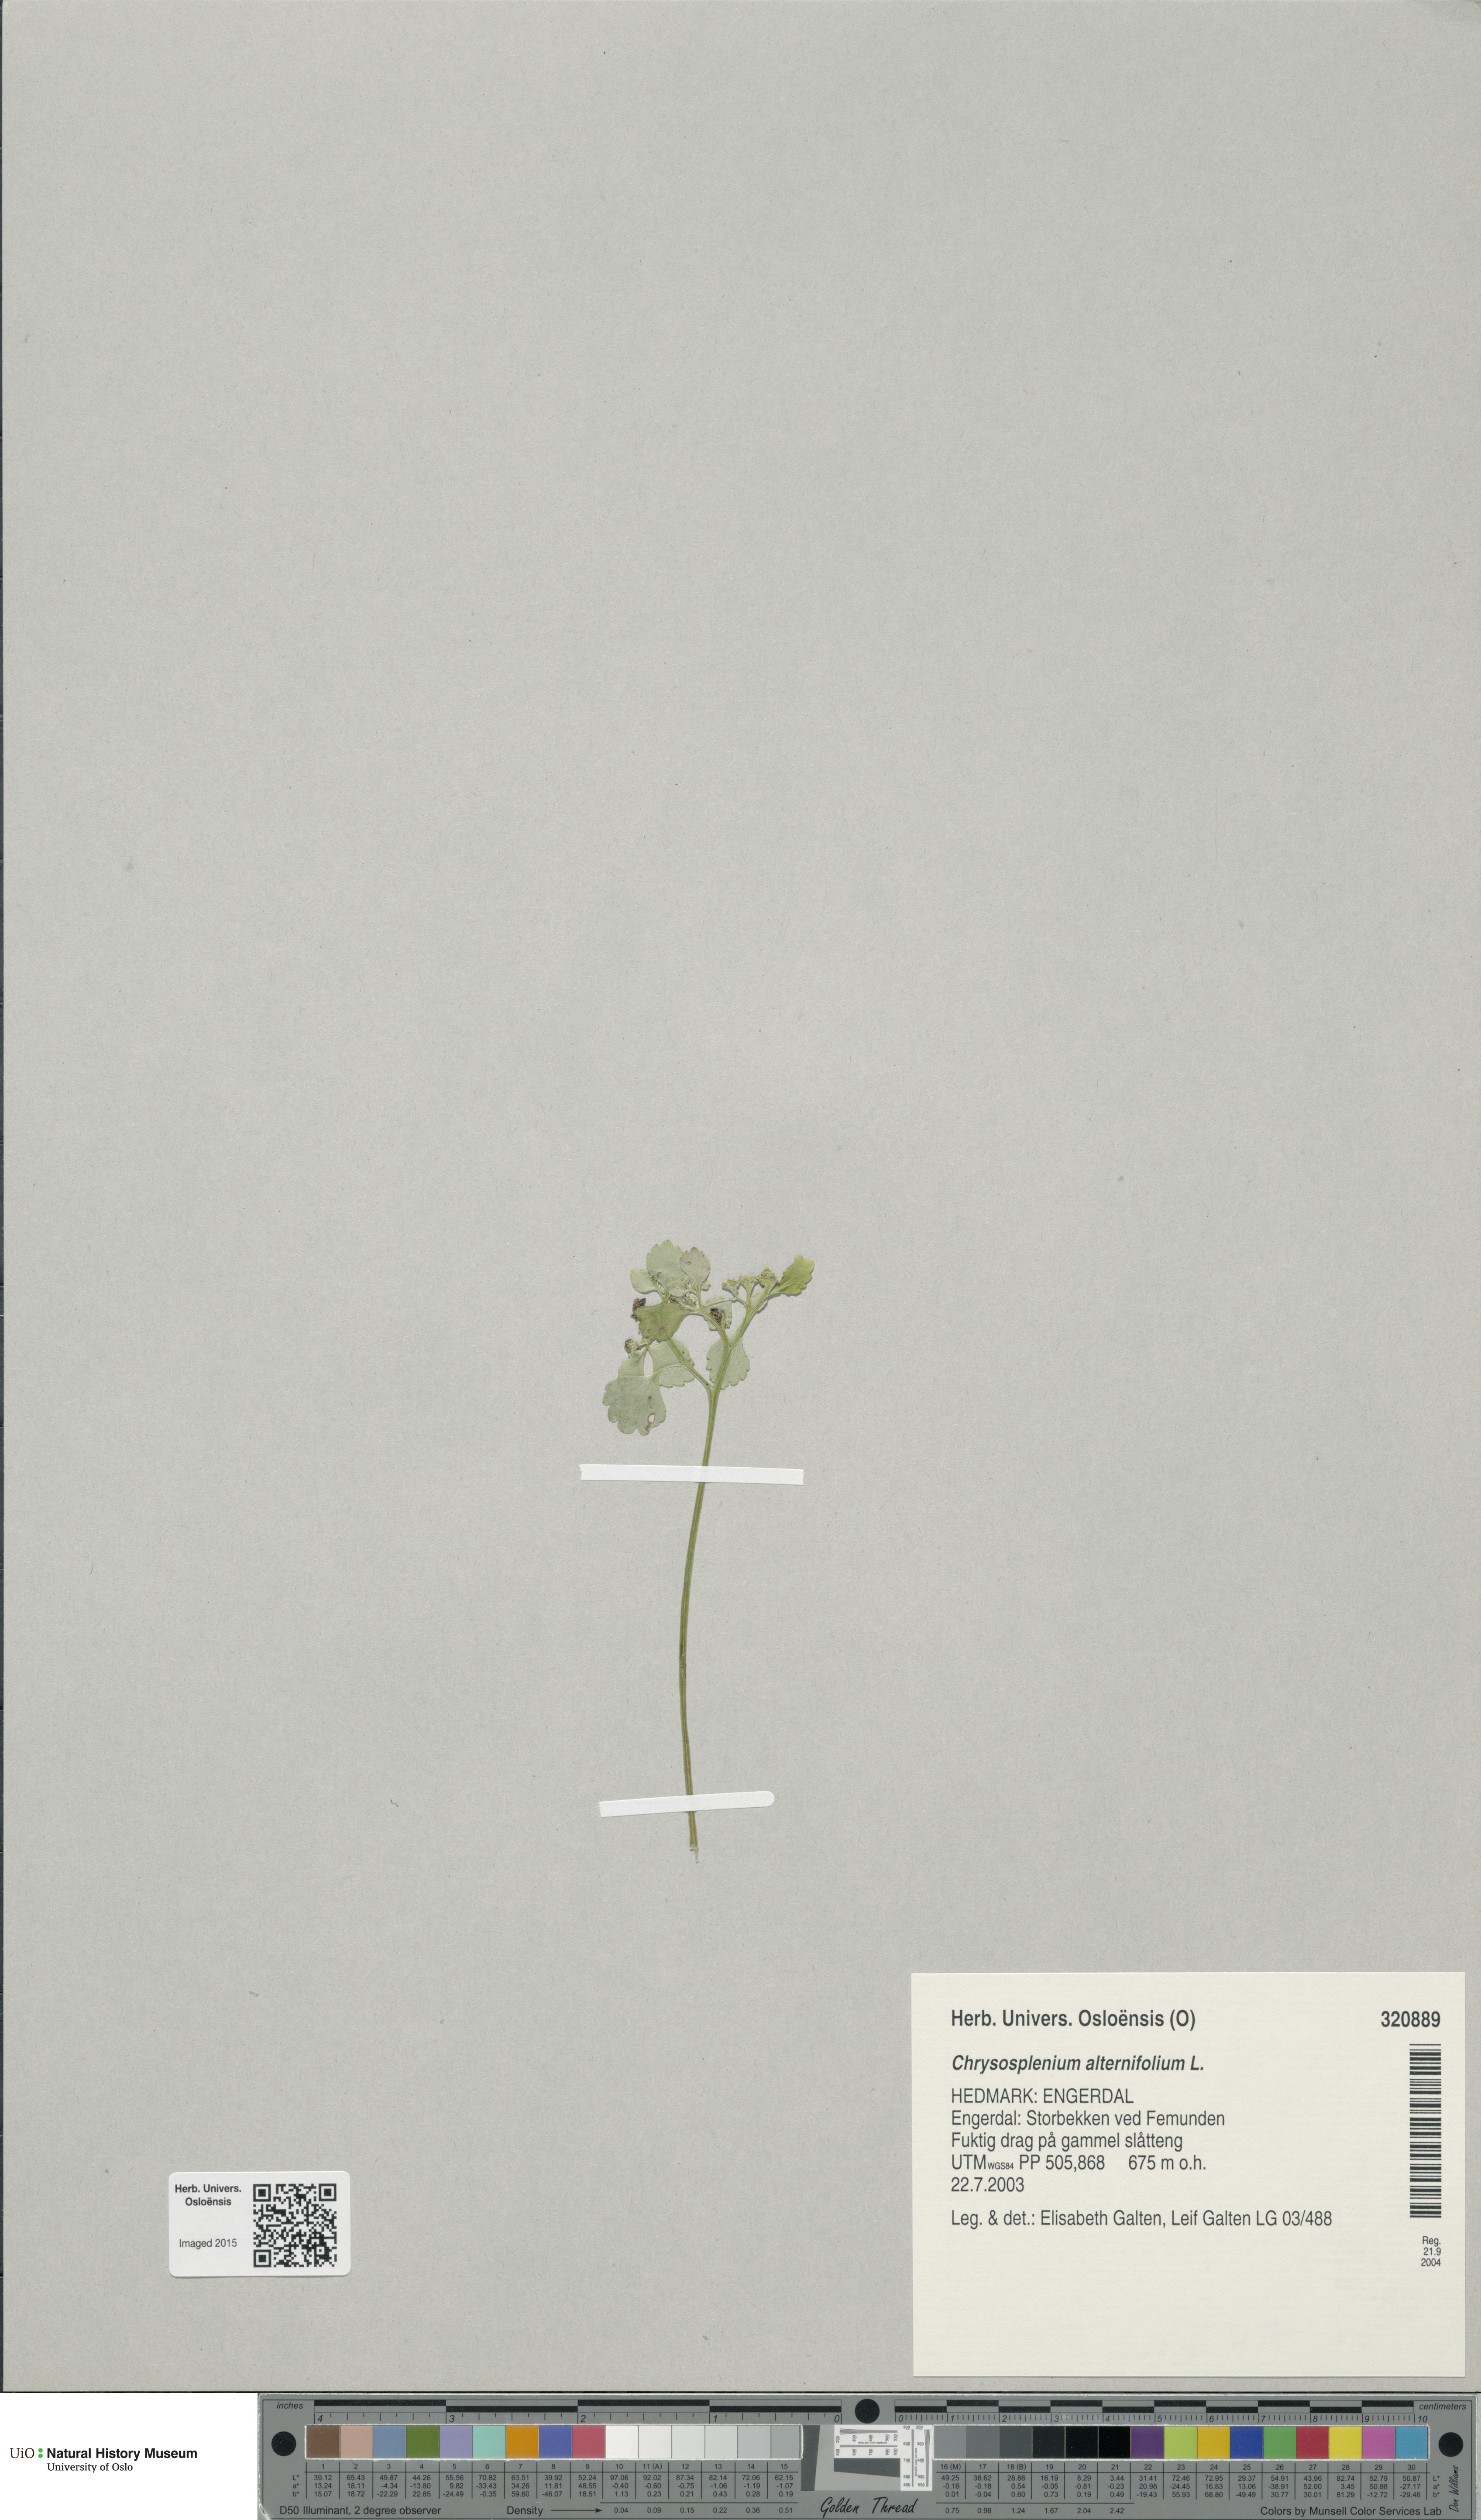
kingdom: Plantae
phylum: Tracheophyta
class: Magnoliopsida
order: Saxifragales
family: Saxifragaceae
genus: Chrysosplenium
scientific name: Chrysosplenium alternifolium
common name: Alternate-leaved golden-saxifrage
